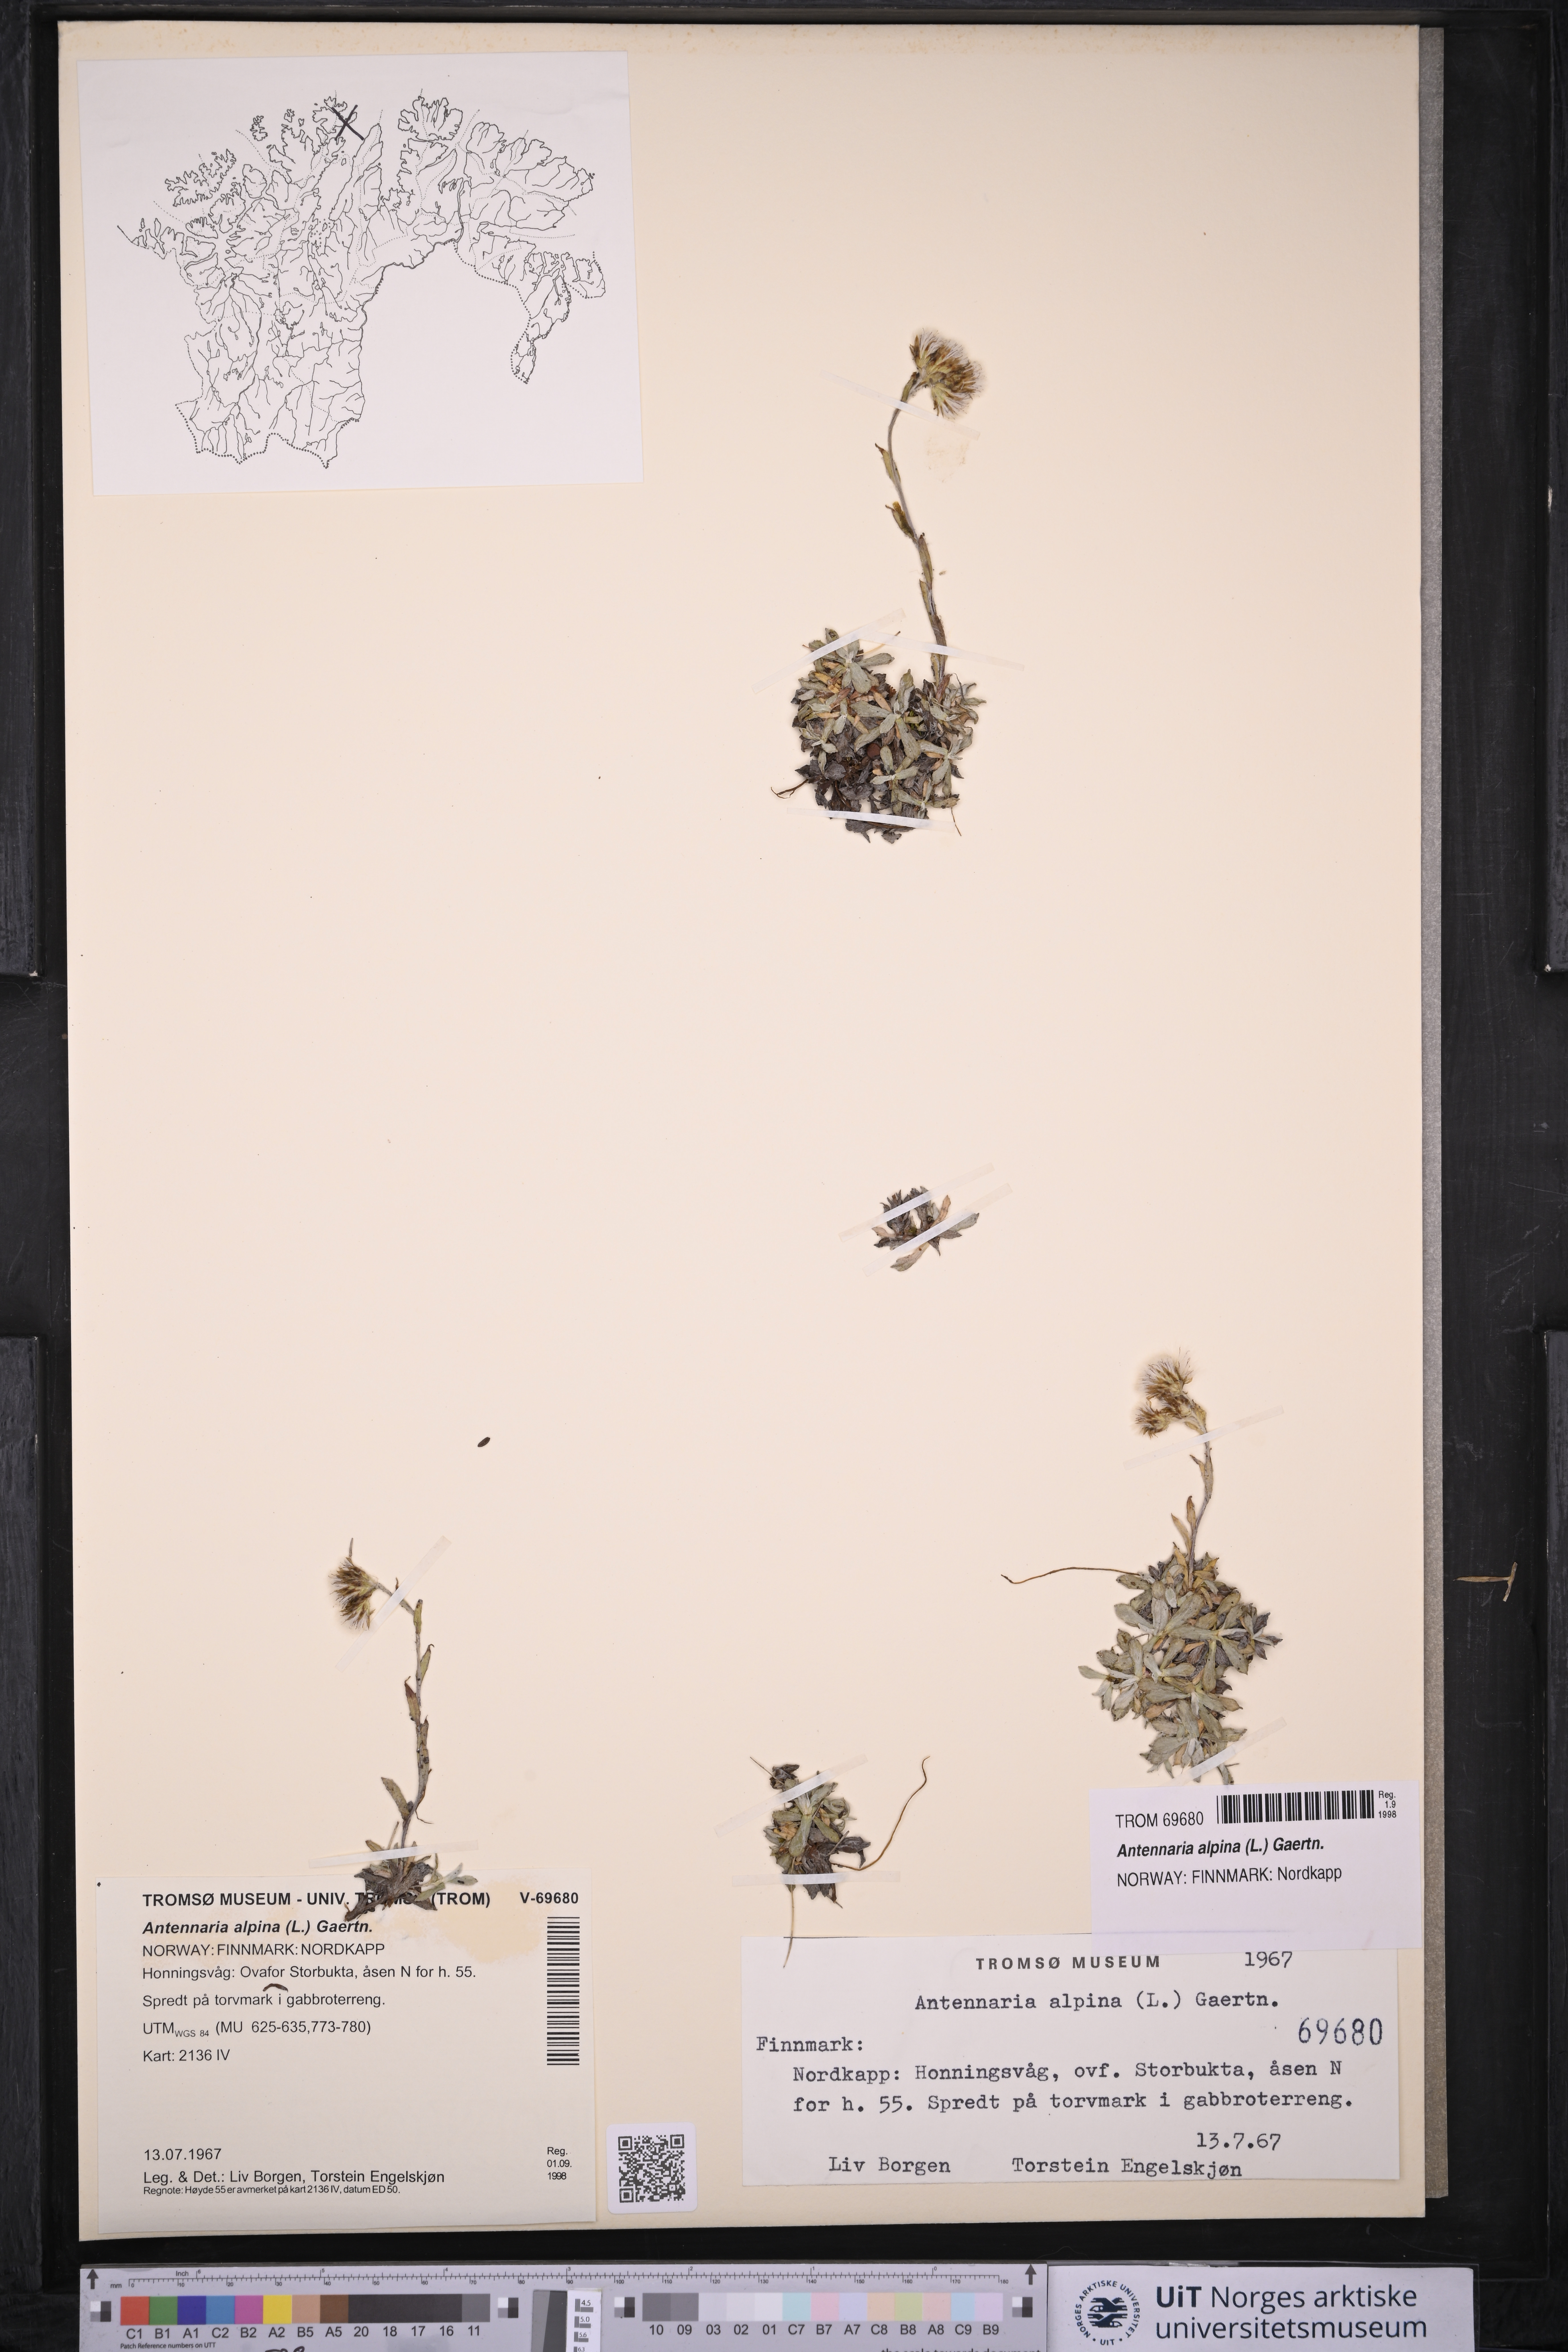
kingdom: Plantae
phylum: Tracheophyta
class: Magnoliopsida
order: Asterales
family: Asteraceae
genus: Antennaria
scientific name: Antennaria alpina
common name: Alpine pussytoes
